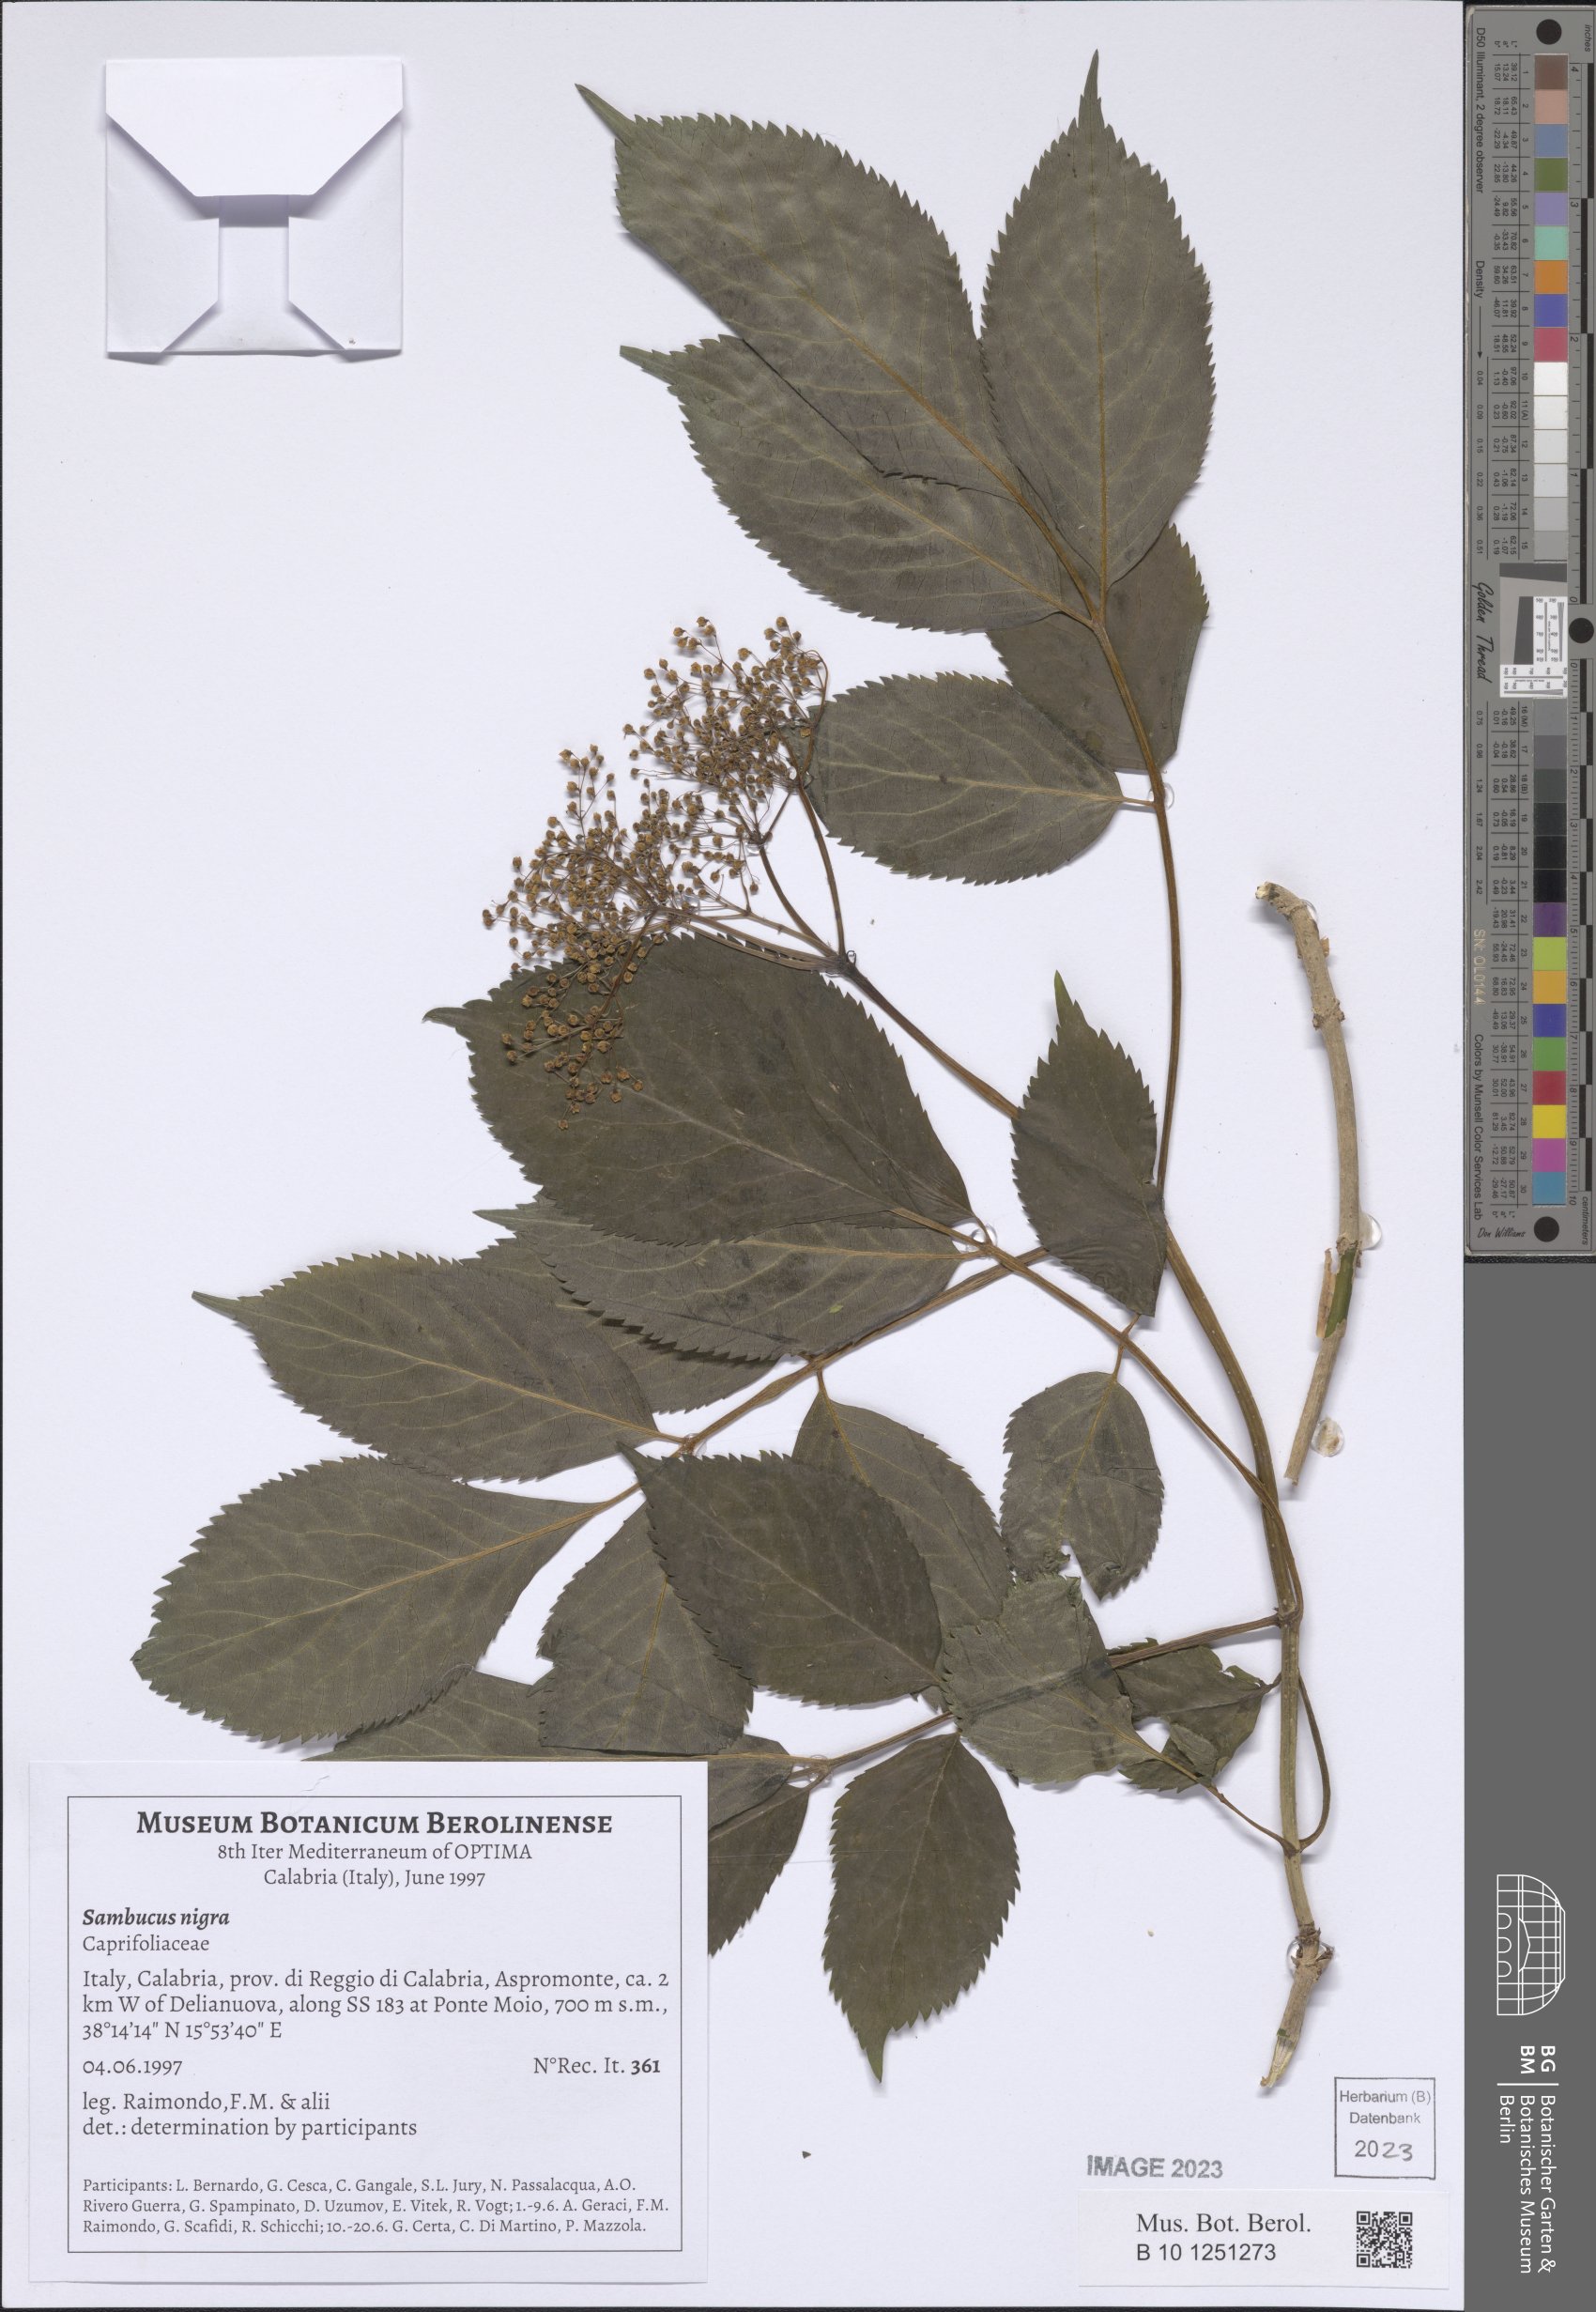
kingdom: Plantae
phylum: Tracheophyta
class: Magnoliopsida
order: Dipsacales
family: Viburnaceae
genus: Sambucus
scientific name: Sambucus nigra
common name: Elder
